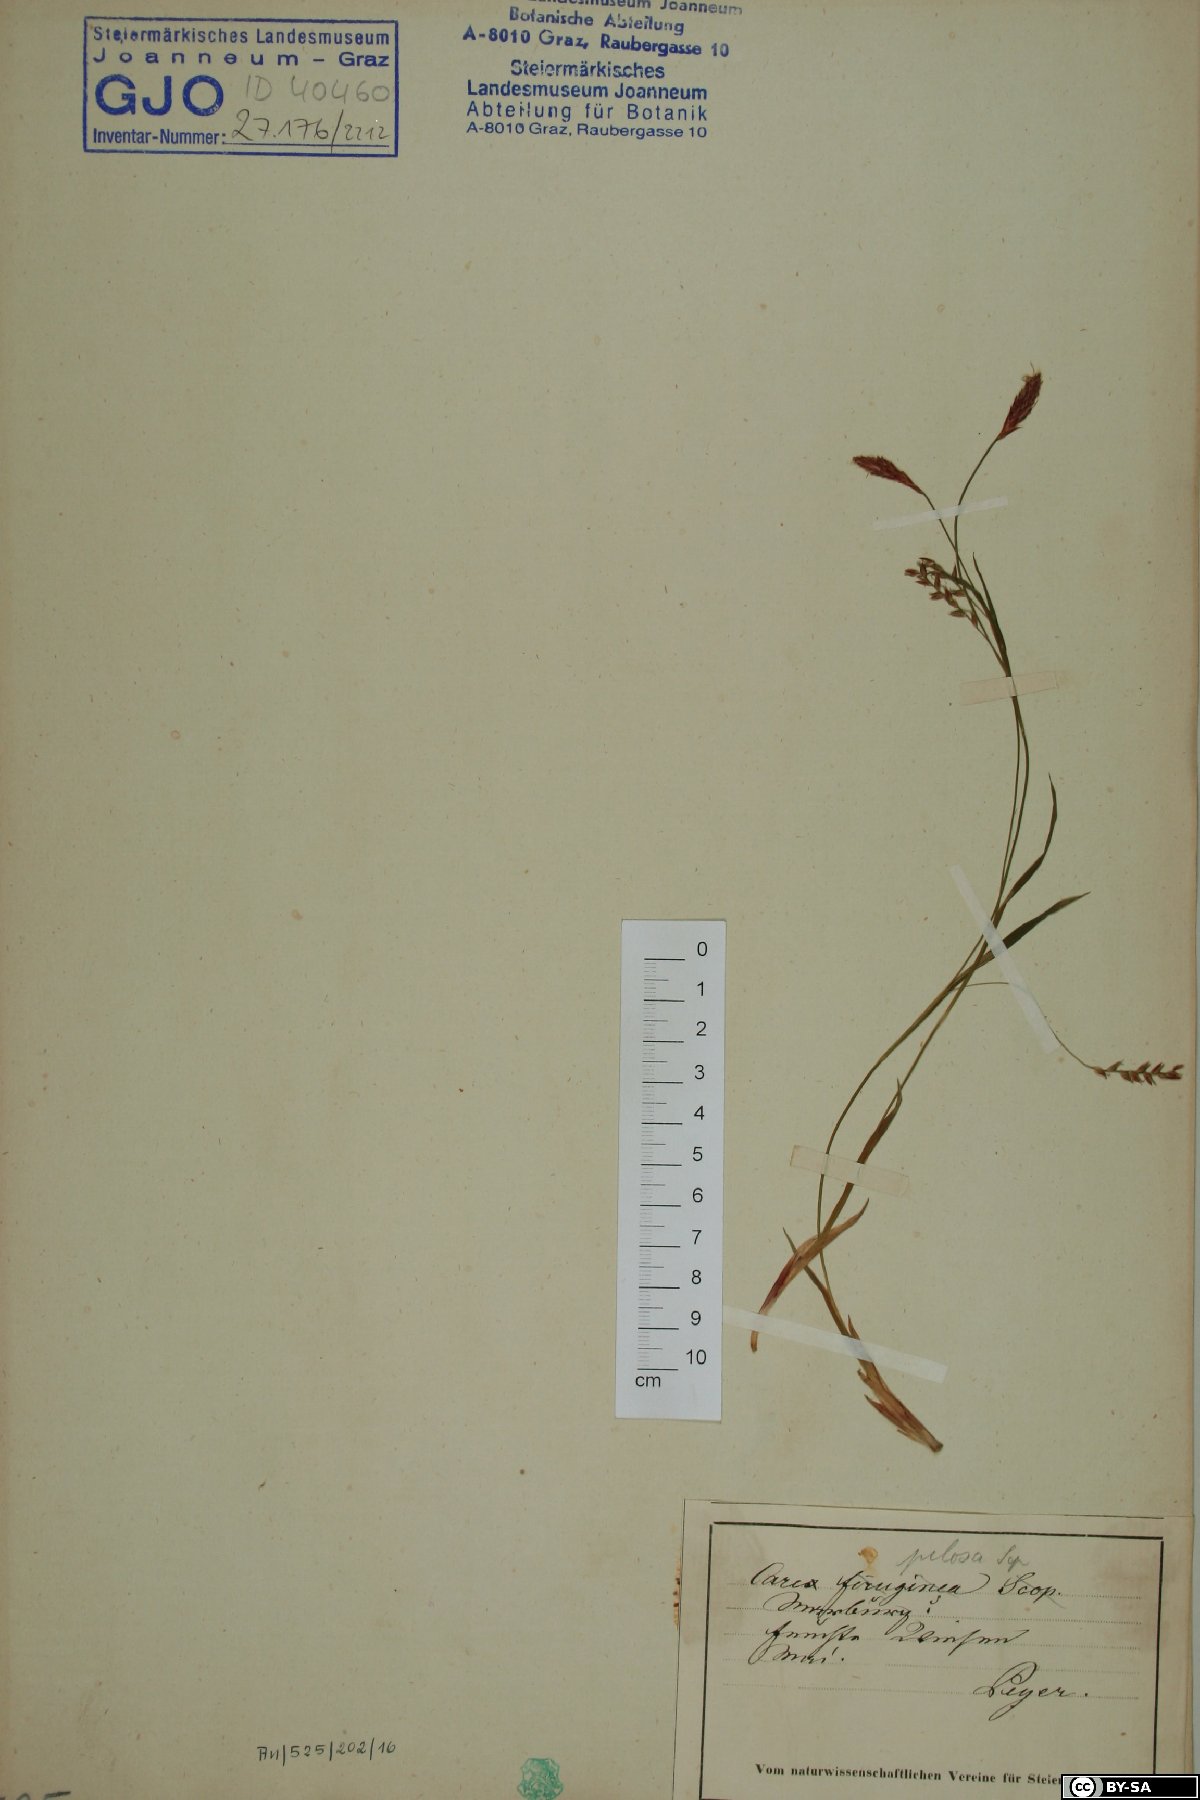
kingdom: Plantae
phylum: Tracheophyta
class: Liliopsida
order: Poales
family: Cyperaceae
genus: Carex
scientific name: Carex ferruginea
